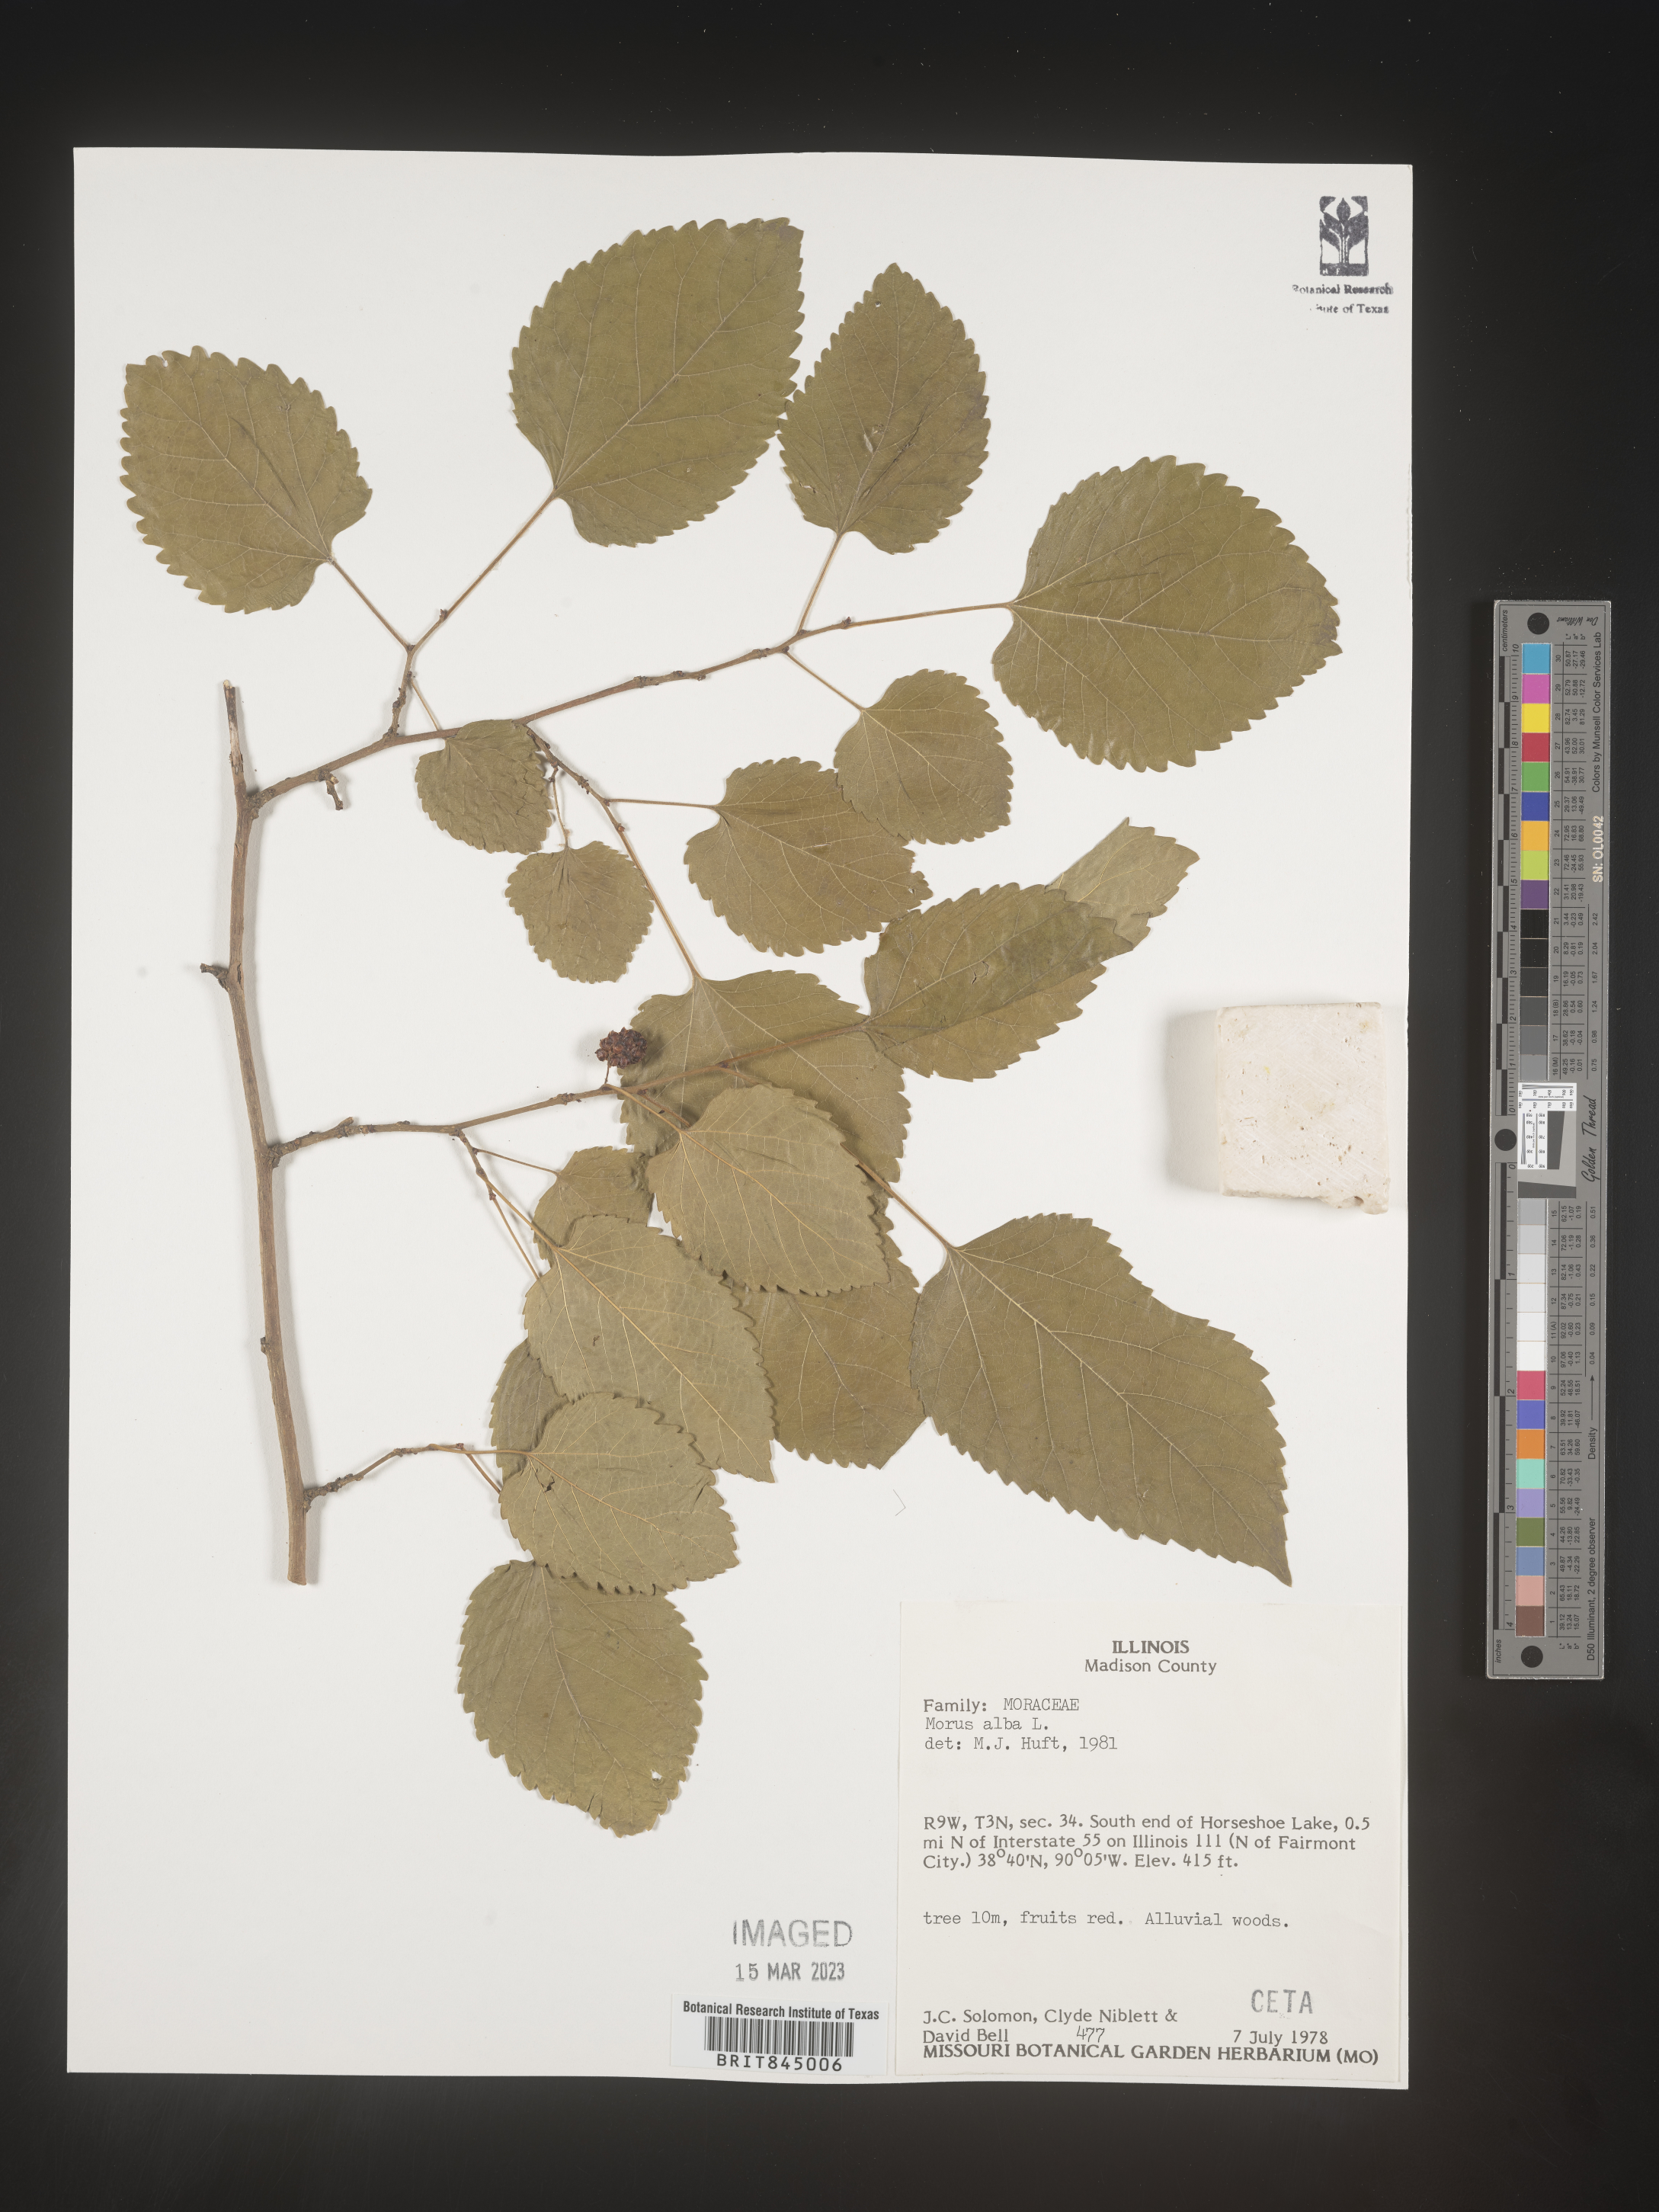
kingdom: Plantae
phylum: Tracheophyta
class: Magnoliopsida
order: Rosales
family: Moraceae
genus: Morus
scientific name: Morus alba
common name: White mulberry
